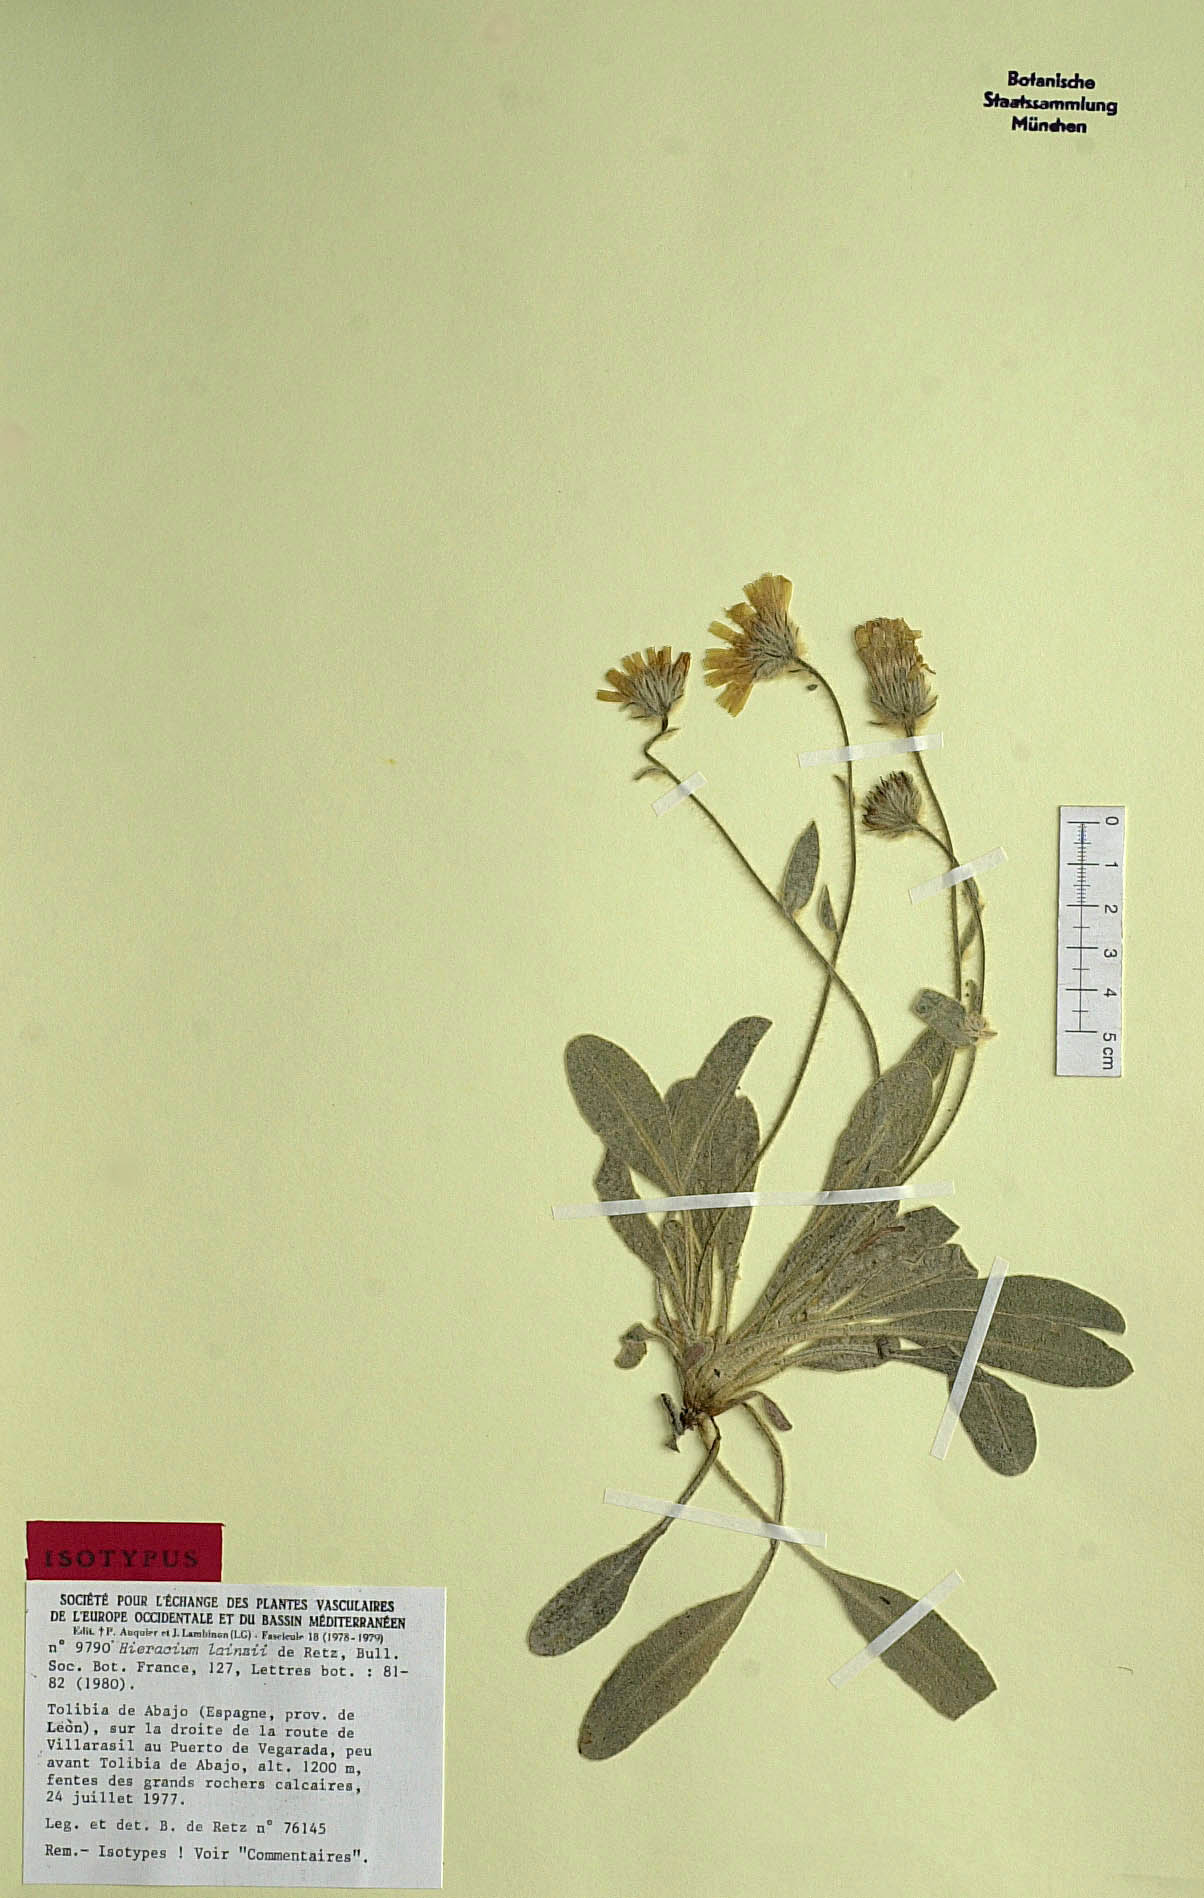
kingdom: Plantae
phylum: Tracheophyta
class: Magnoliopsida
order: Asterales
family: Asteraceae
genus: Hieracium
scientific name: Hieracium lainzii
